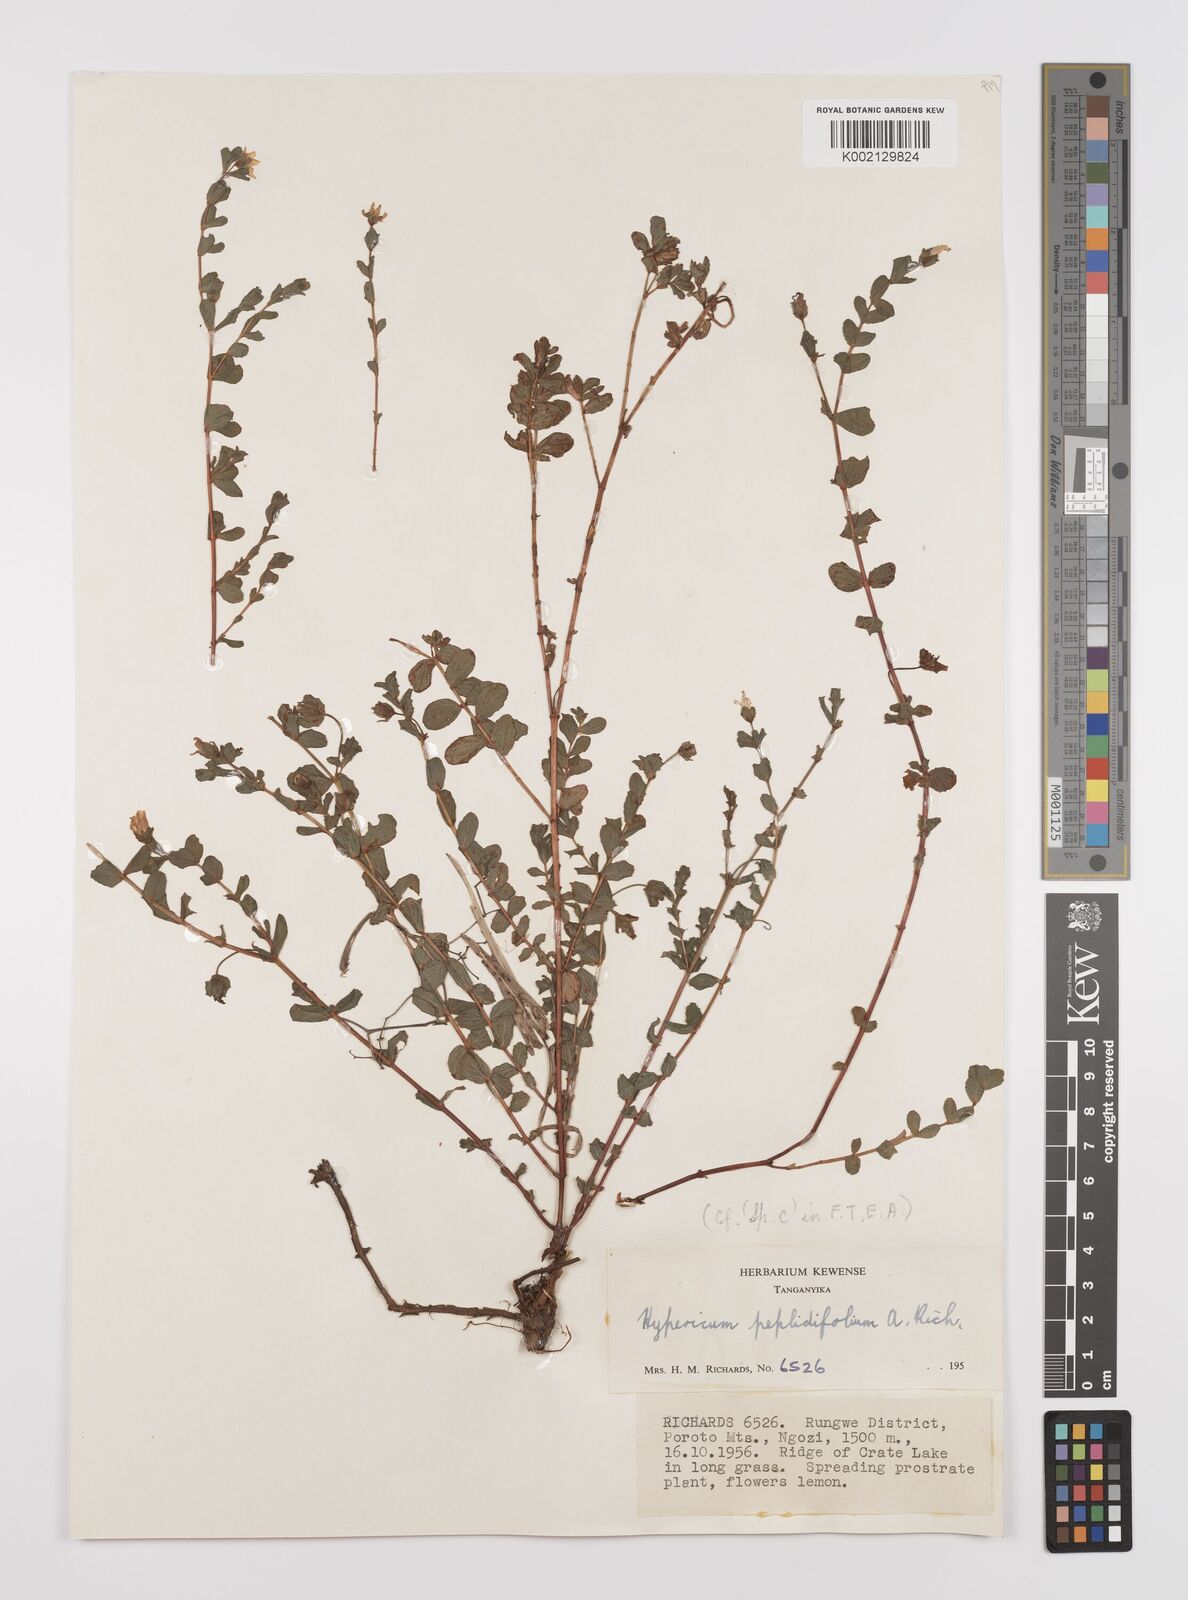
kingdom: Plantae
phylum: Tracheophyta
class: Magnoliopsida
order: Malpighiales
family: Hypericaceae
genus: Hypericum
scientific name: Hypericum peplidifolium
